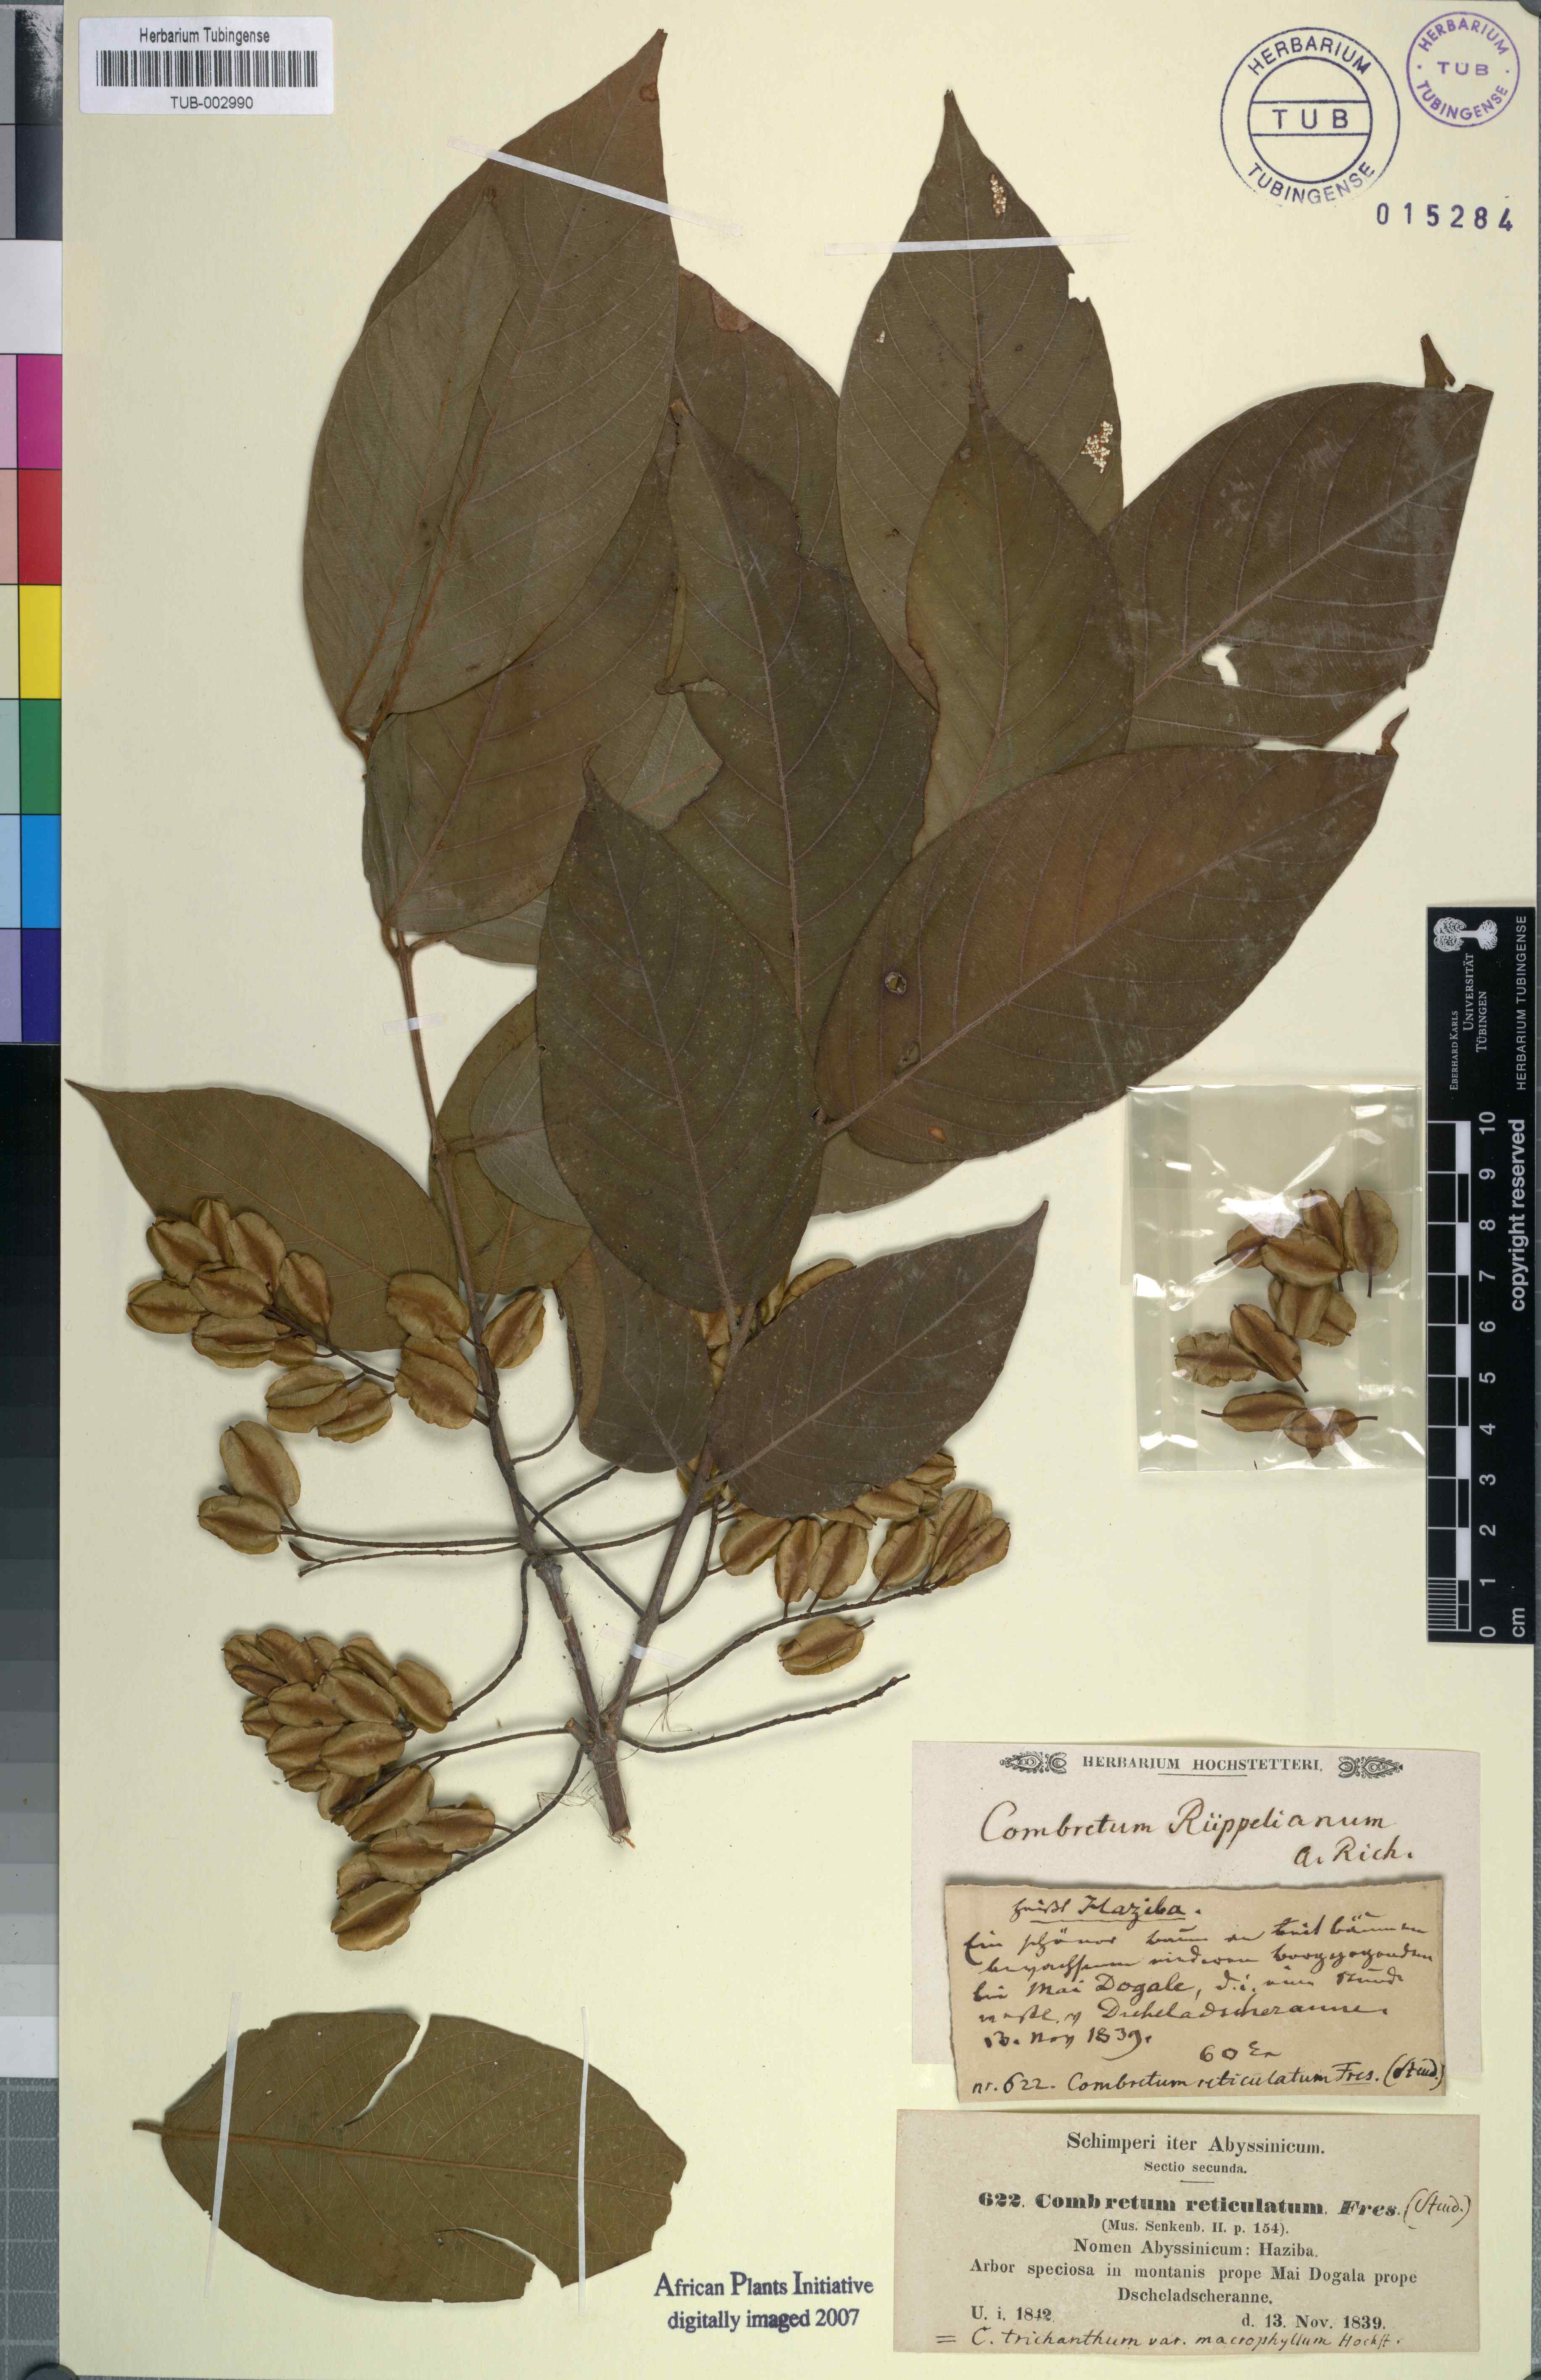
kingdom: Plantae
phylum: Tracheophyta
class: Magnoliopsida
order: Myrtales
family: Combretaceae
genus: Combretum
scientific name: Combretum adenogonium
